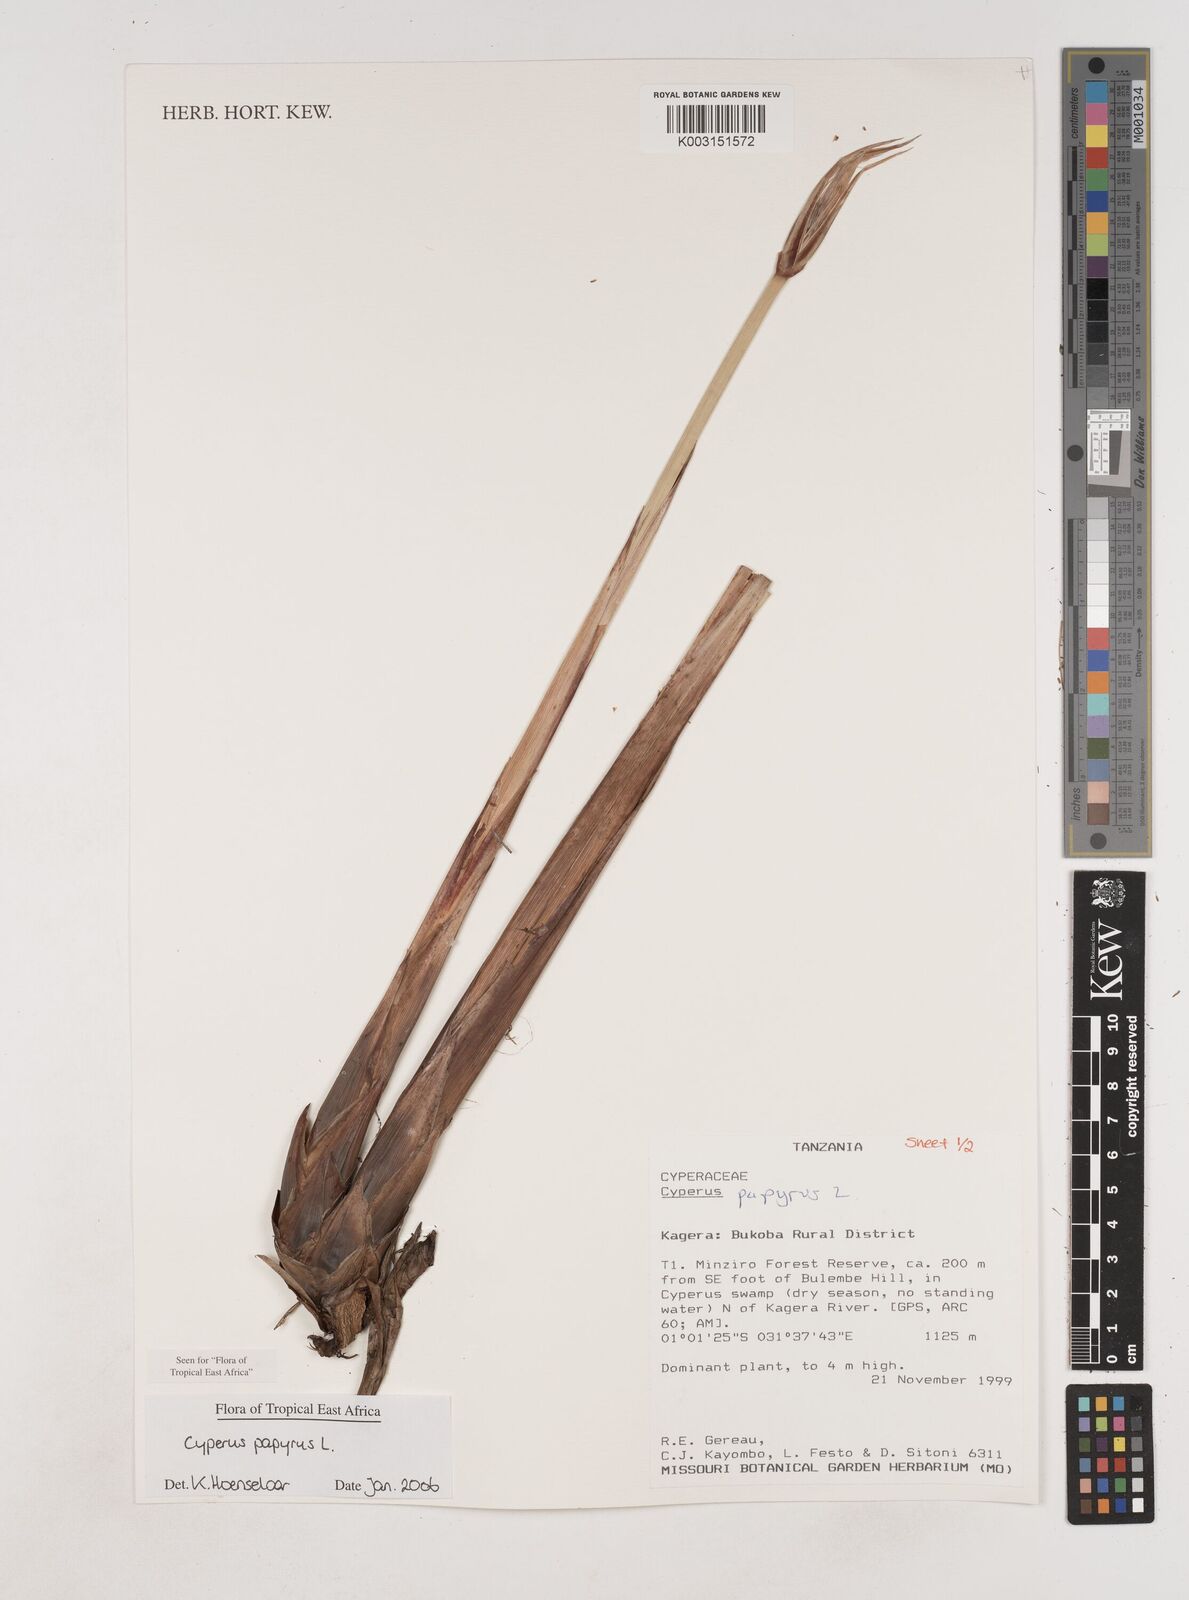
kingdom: Plantae
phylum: Tracheophyta
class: Liliopsida
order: Poales
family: Cyperaceae
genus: Cyperus
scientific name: Cyperus papyrus
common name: Papyrus
